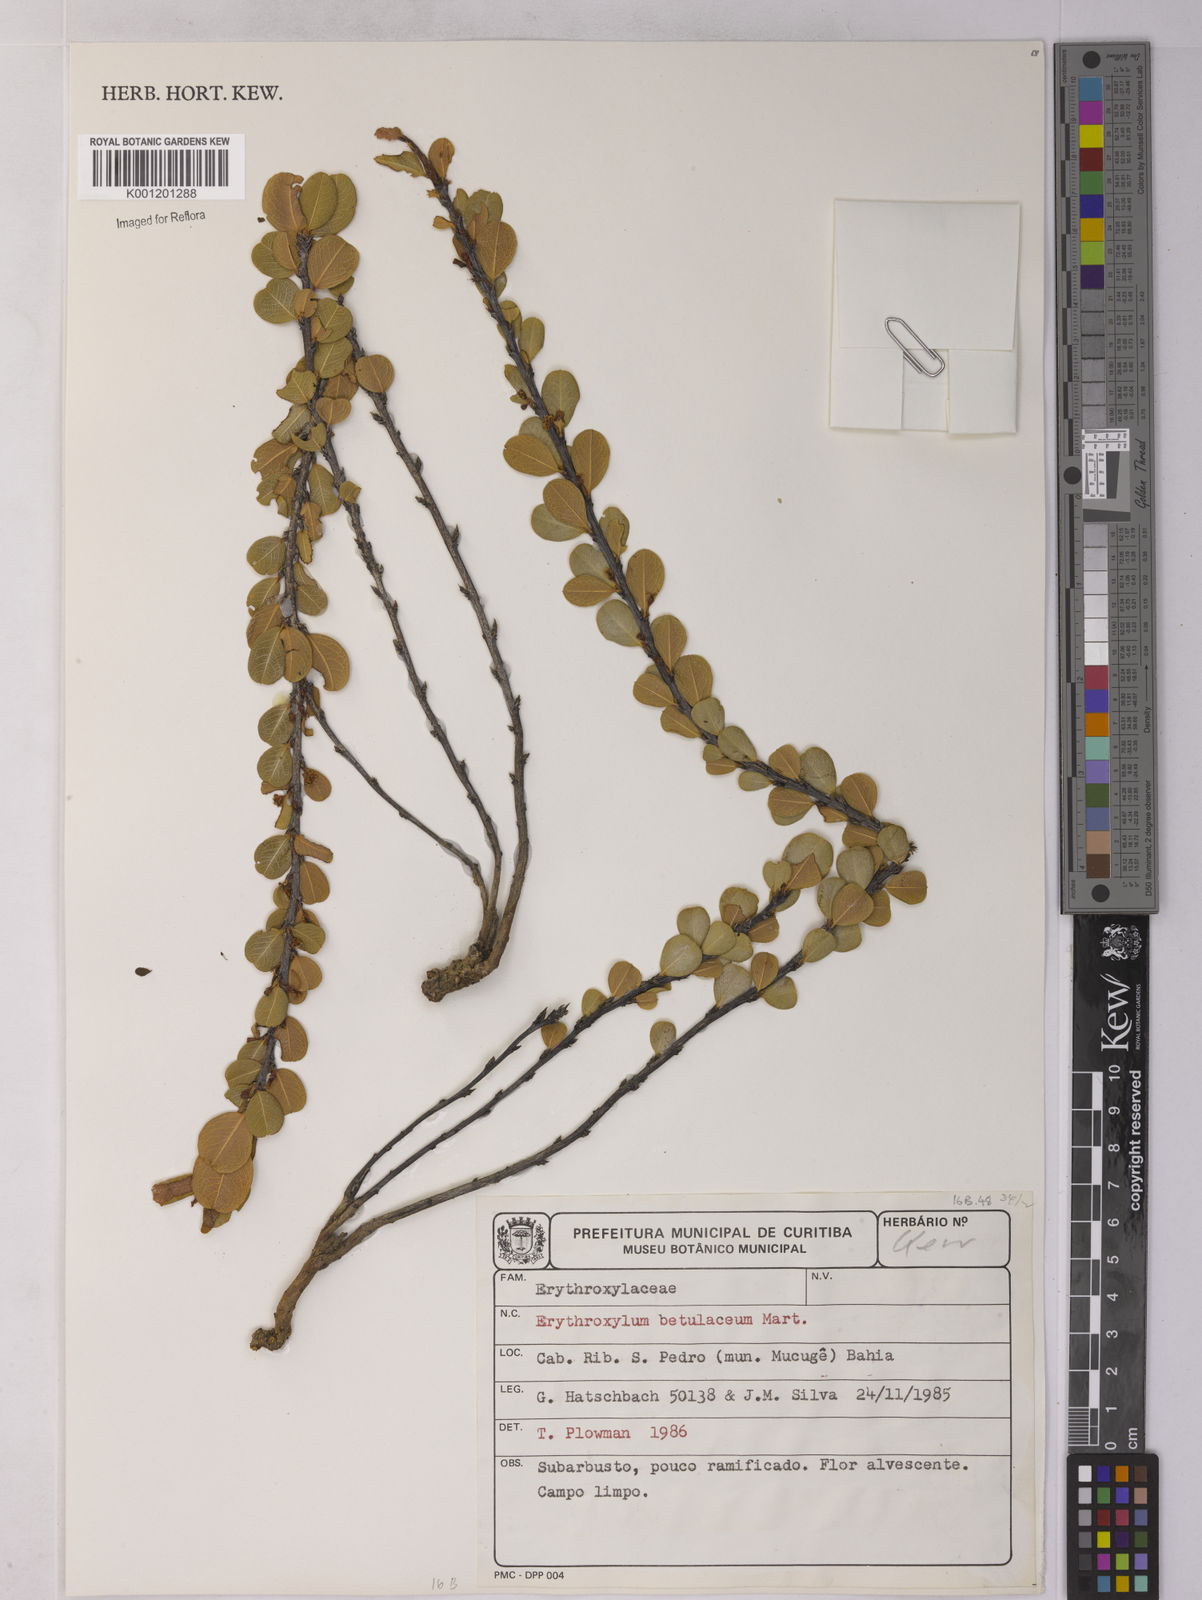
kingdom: Plantae
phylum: Tracheophyta
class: Magnoliopsida
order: Malpighiales
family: Erythroxylaceae
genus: Erythroxylum
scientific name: Erythroxylum betulaceum
